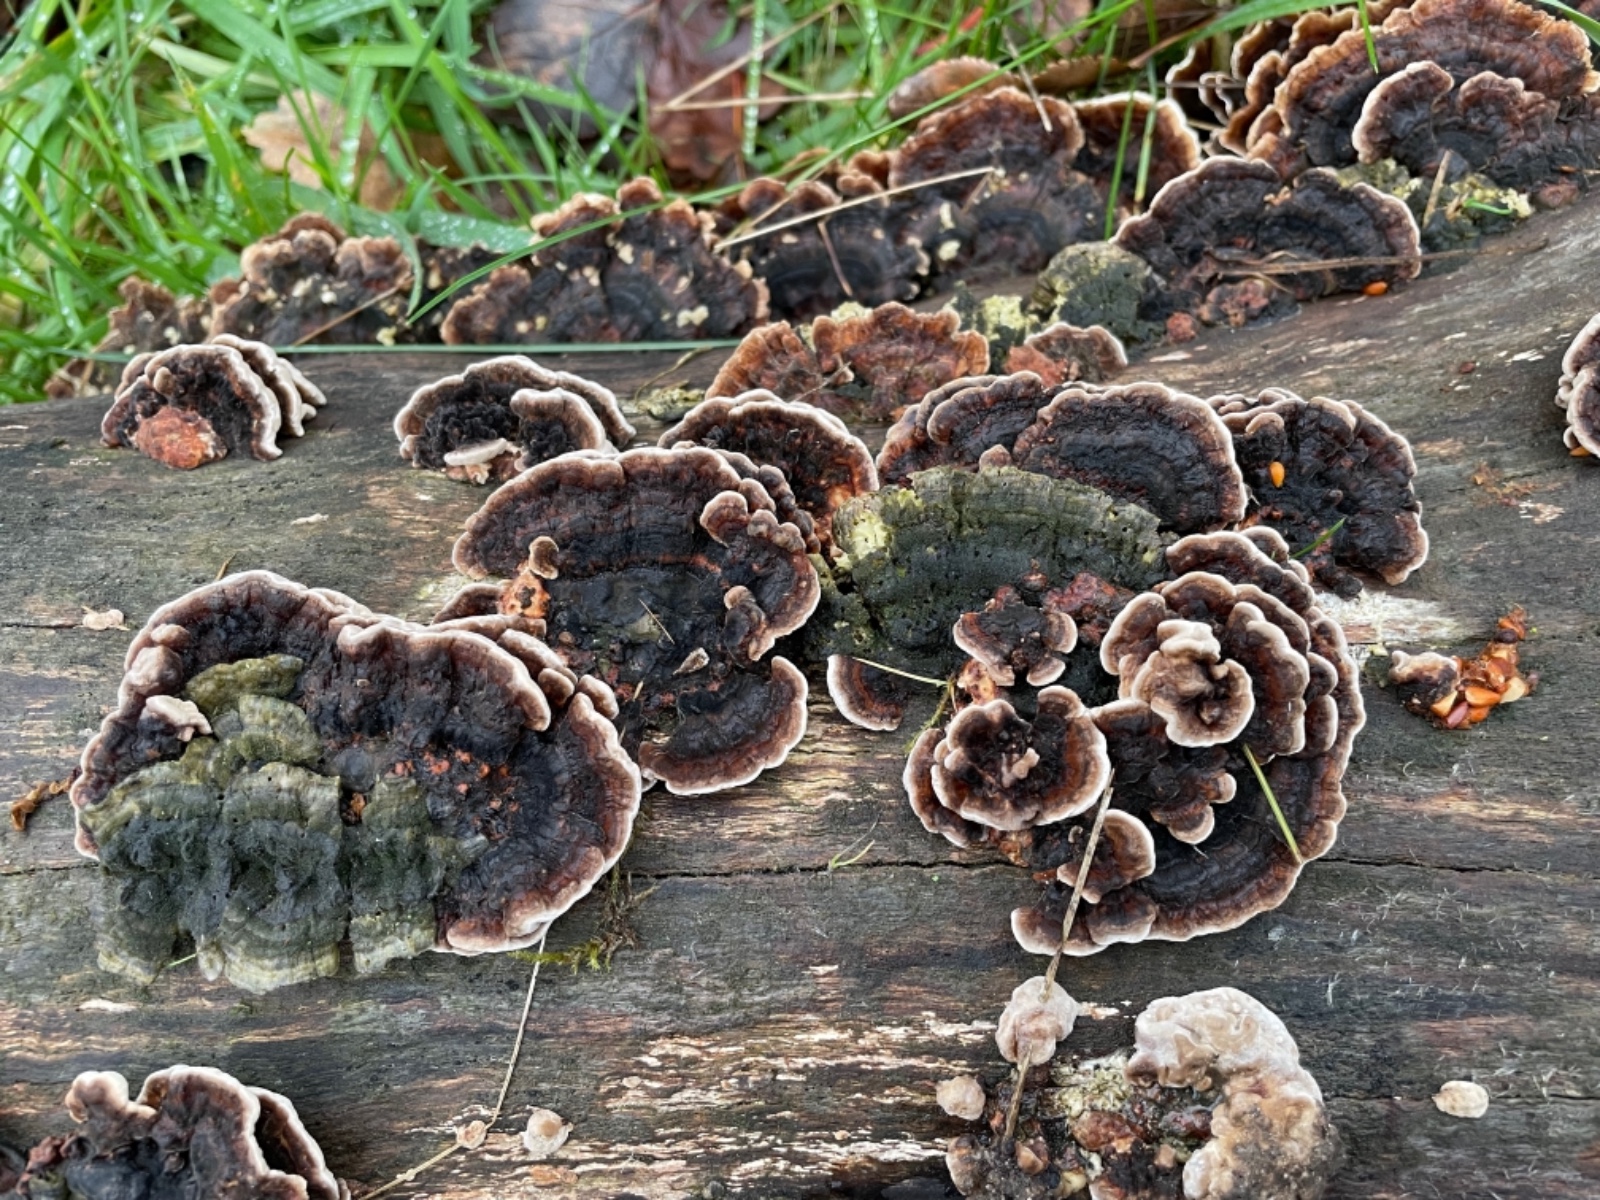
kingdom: Fungi
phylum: Basidiomycota
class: Agaricomycetes
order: Polyporales
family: Polyporaceae
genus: Trametes
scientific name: Trametes versicolor
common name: broget læderporesvamp
